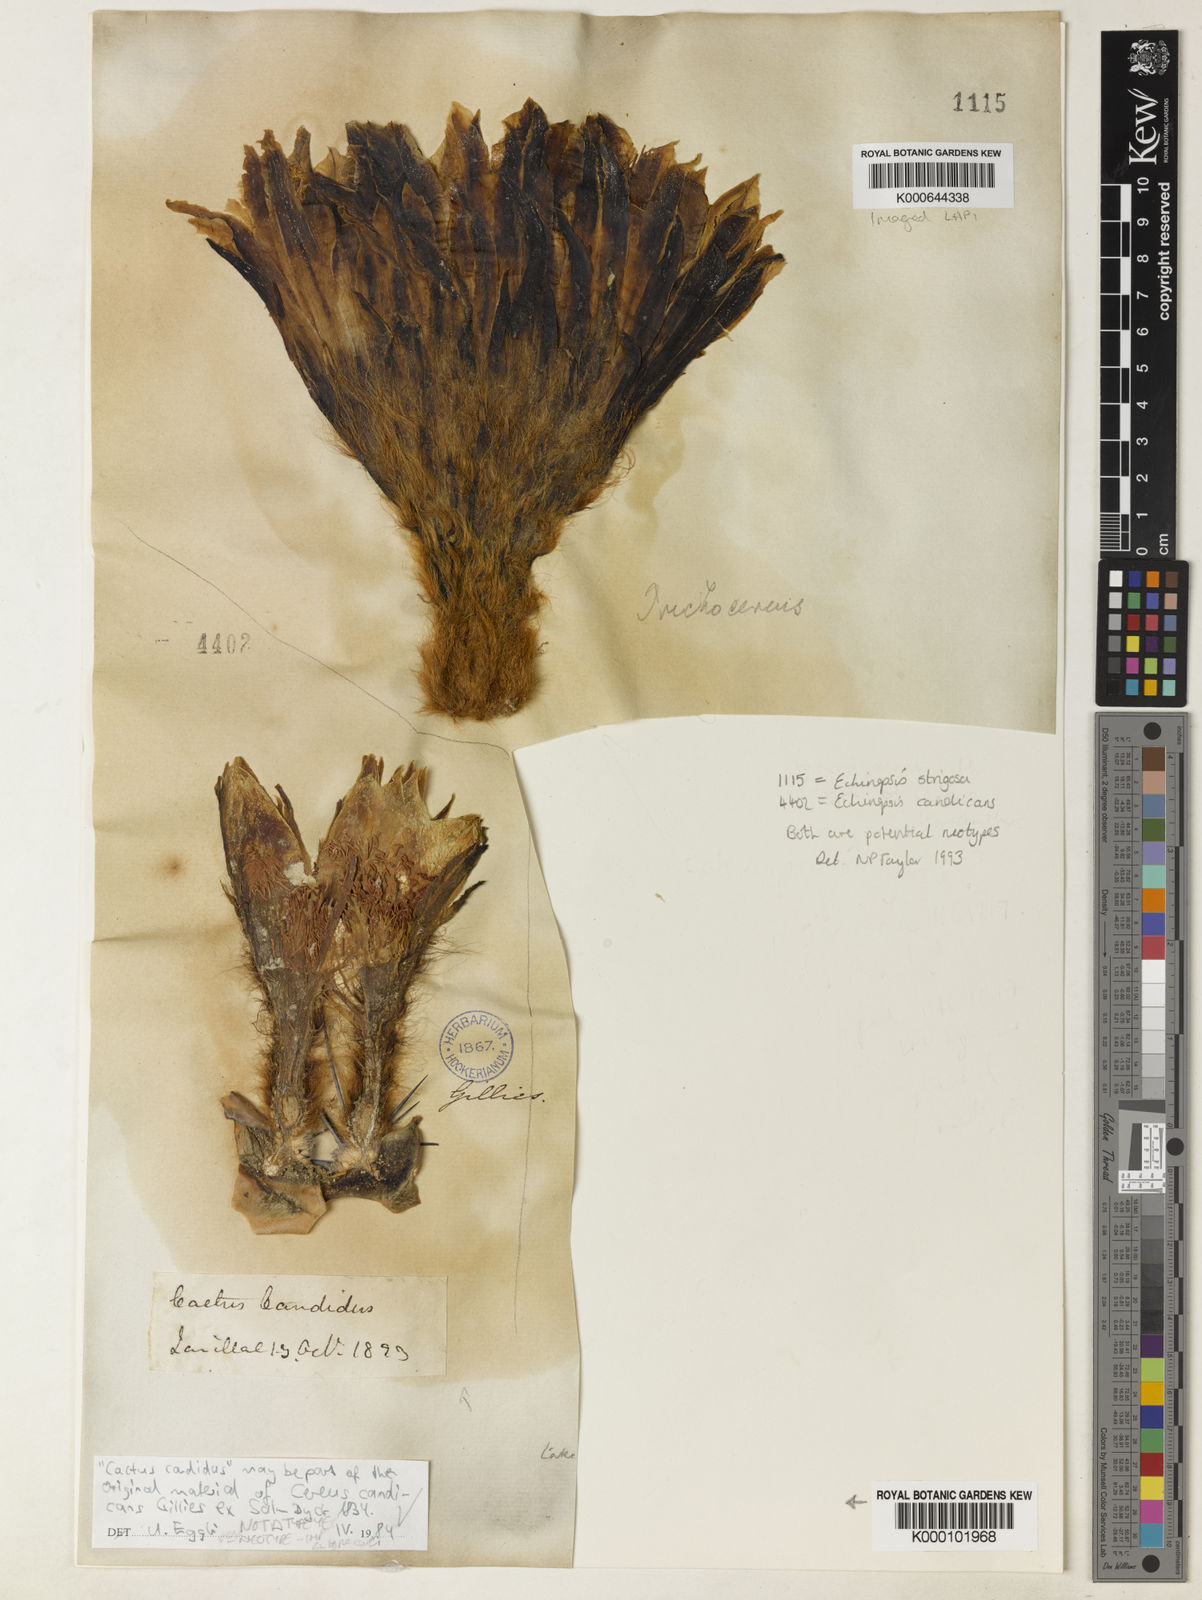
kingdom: Plantae
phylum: Tracheophyta
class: Magnoliopsida
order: Caryophyllales
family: Cactaceae
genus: Soehrensia
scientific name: Soehrensia candicans
